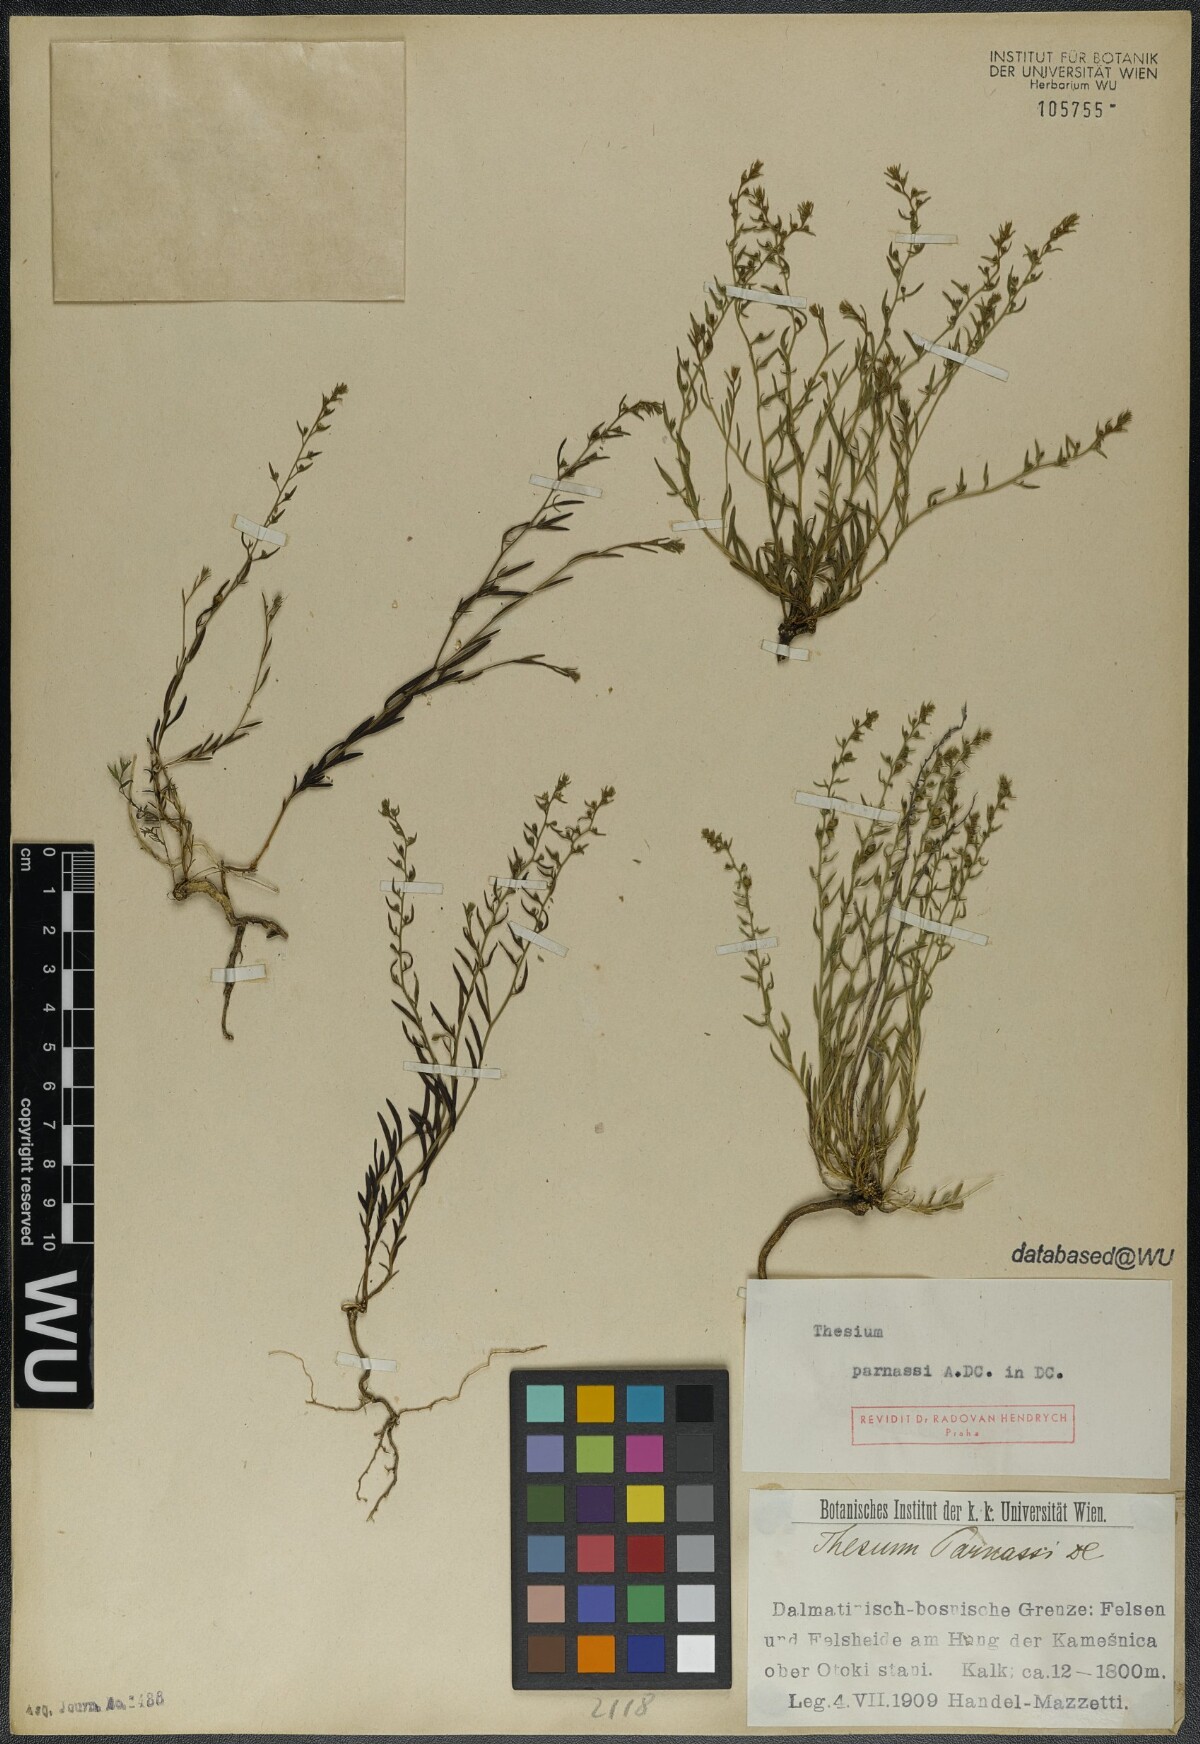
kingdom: Plantae
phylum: Tracheophyta
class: Magnoliopsida
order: Santalales
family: Thesiaceae
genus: Thesium
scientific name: Thesium parnassi
